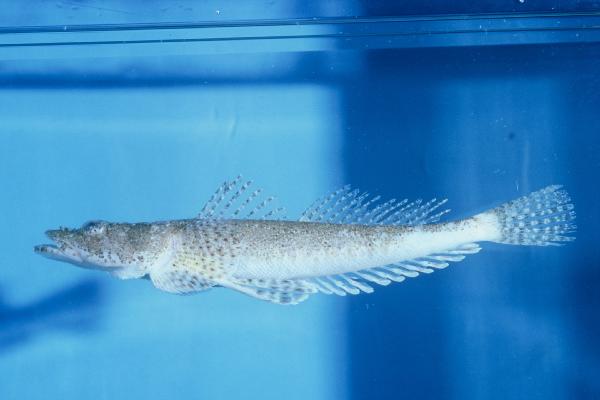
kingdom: Animalia
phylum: Chordata
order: Scorpaeniformes
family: Platycephalidae
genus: Sunagocia
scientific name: Sunagocia otaitensis
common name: Fringelip flathead
